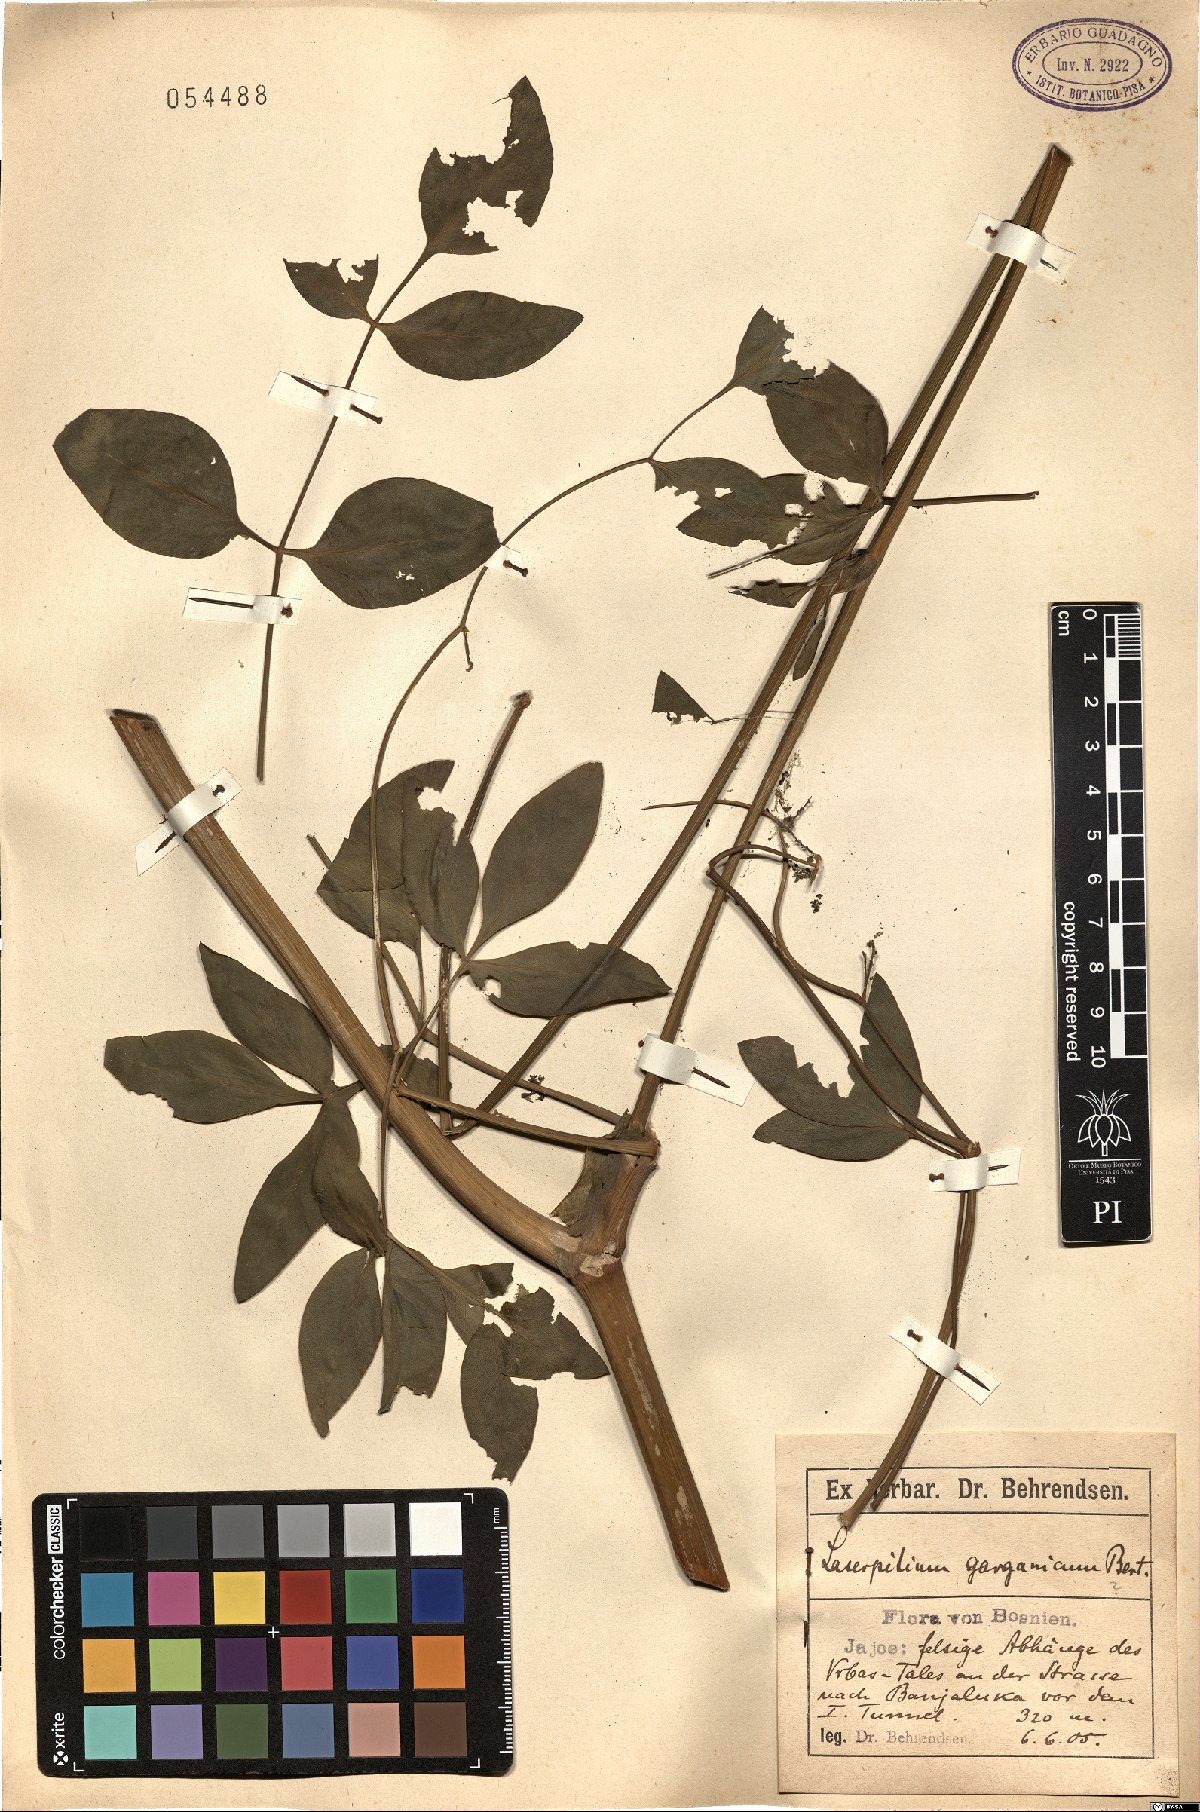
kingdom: Plantae
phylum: Tracheophyta
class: Magnoliopsida
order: Apiales
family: Apiaceae
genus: Siler
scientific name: Siler montanum
